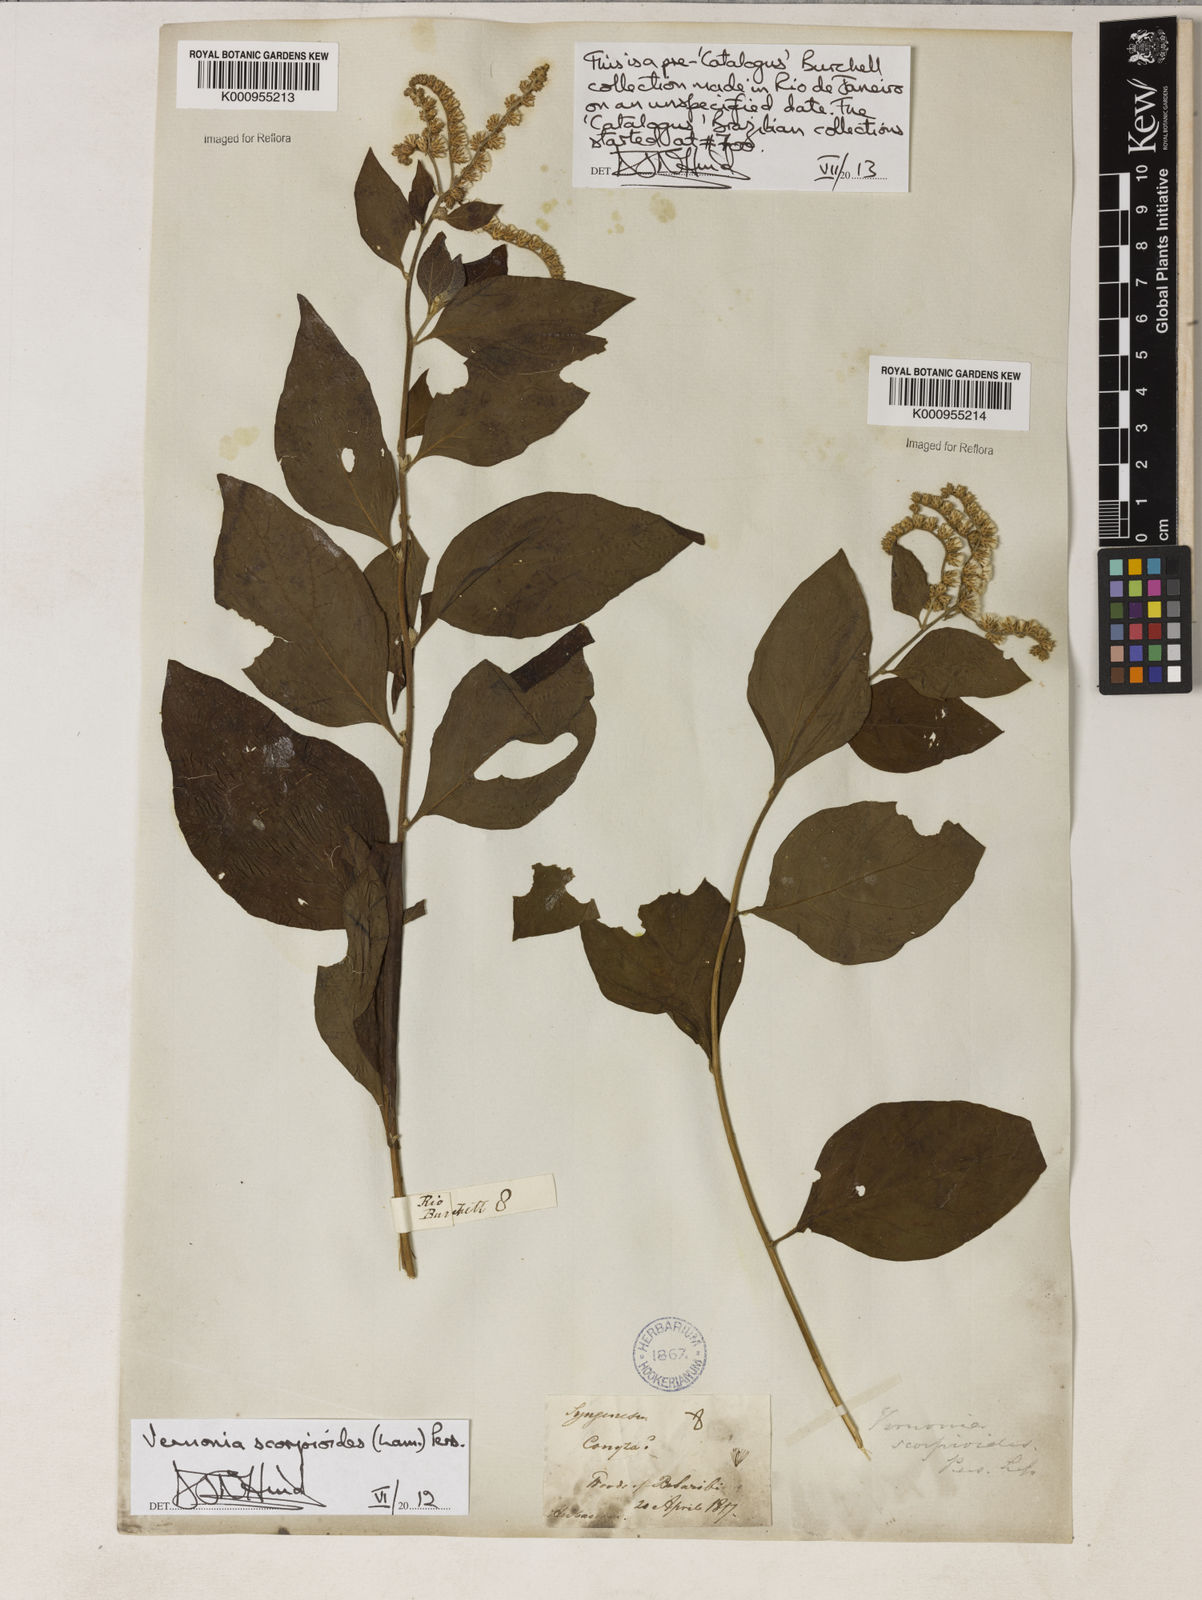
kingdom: Plantae
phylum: Tracheophyta
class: Magnoliopsida
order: Asterales
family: Asteraceae
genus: Cyrtocymura
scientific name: Cyrtocymura scorpioides
